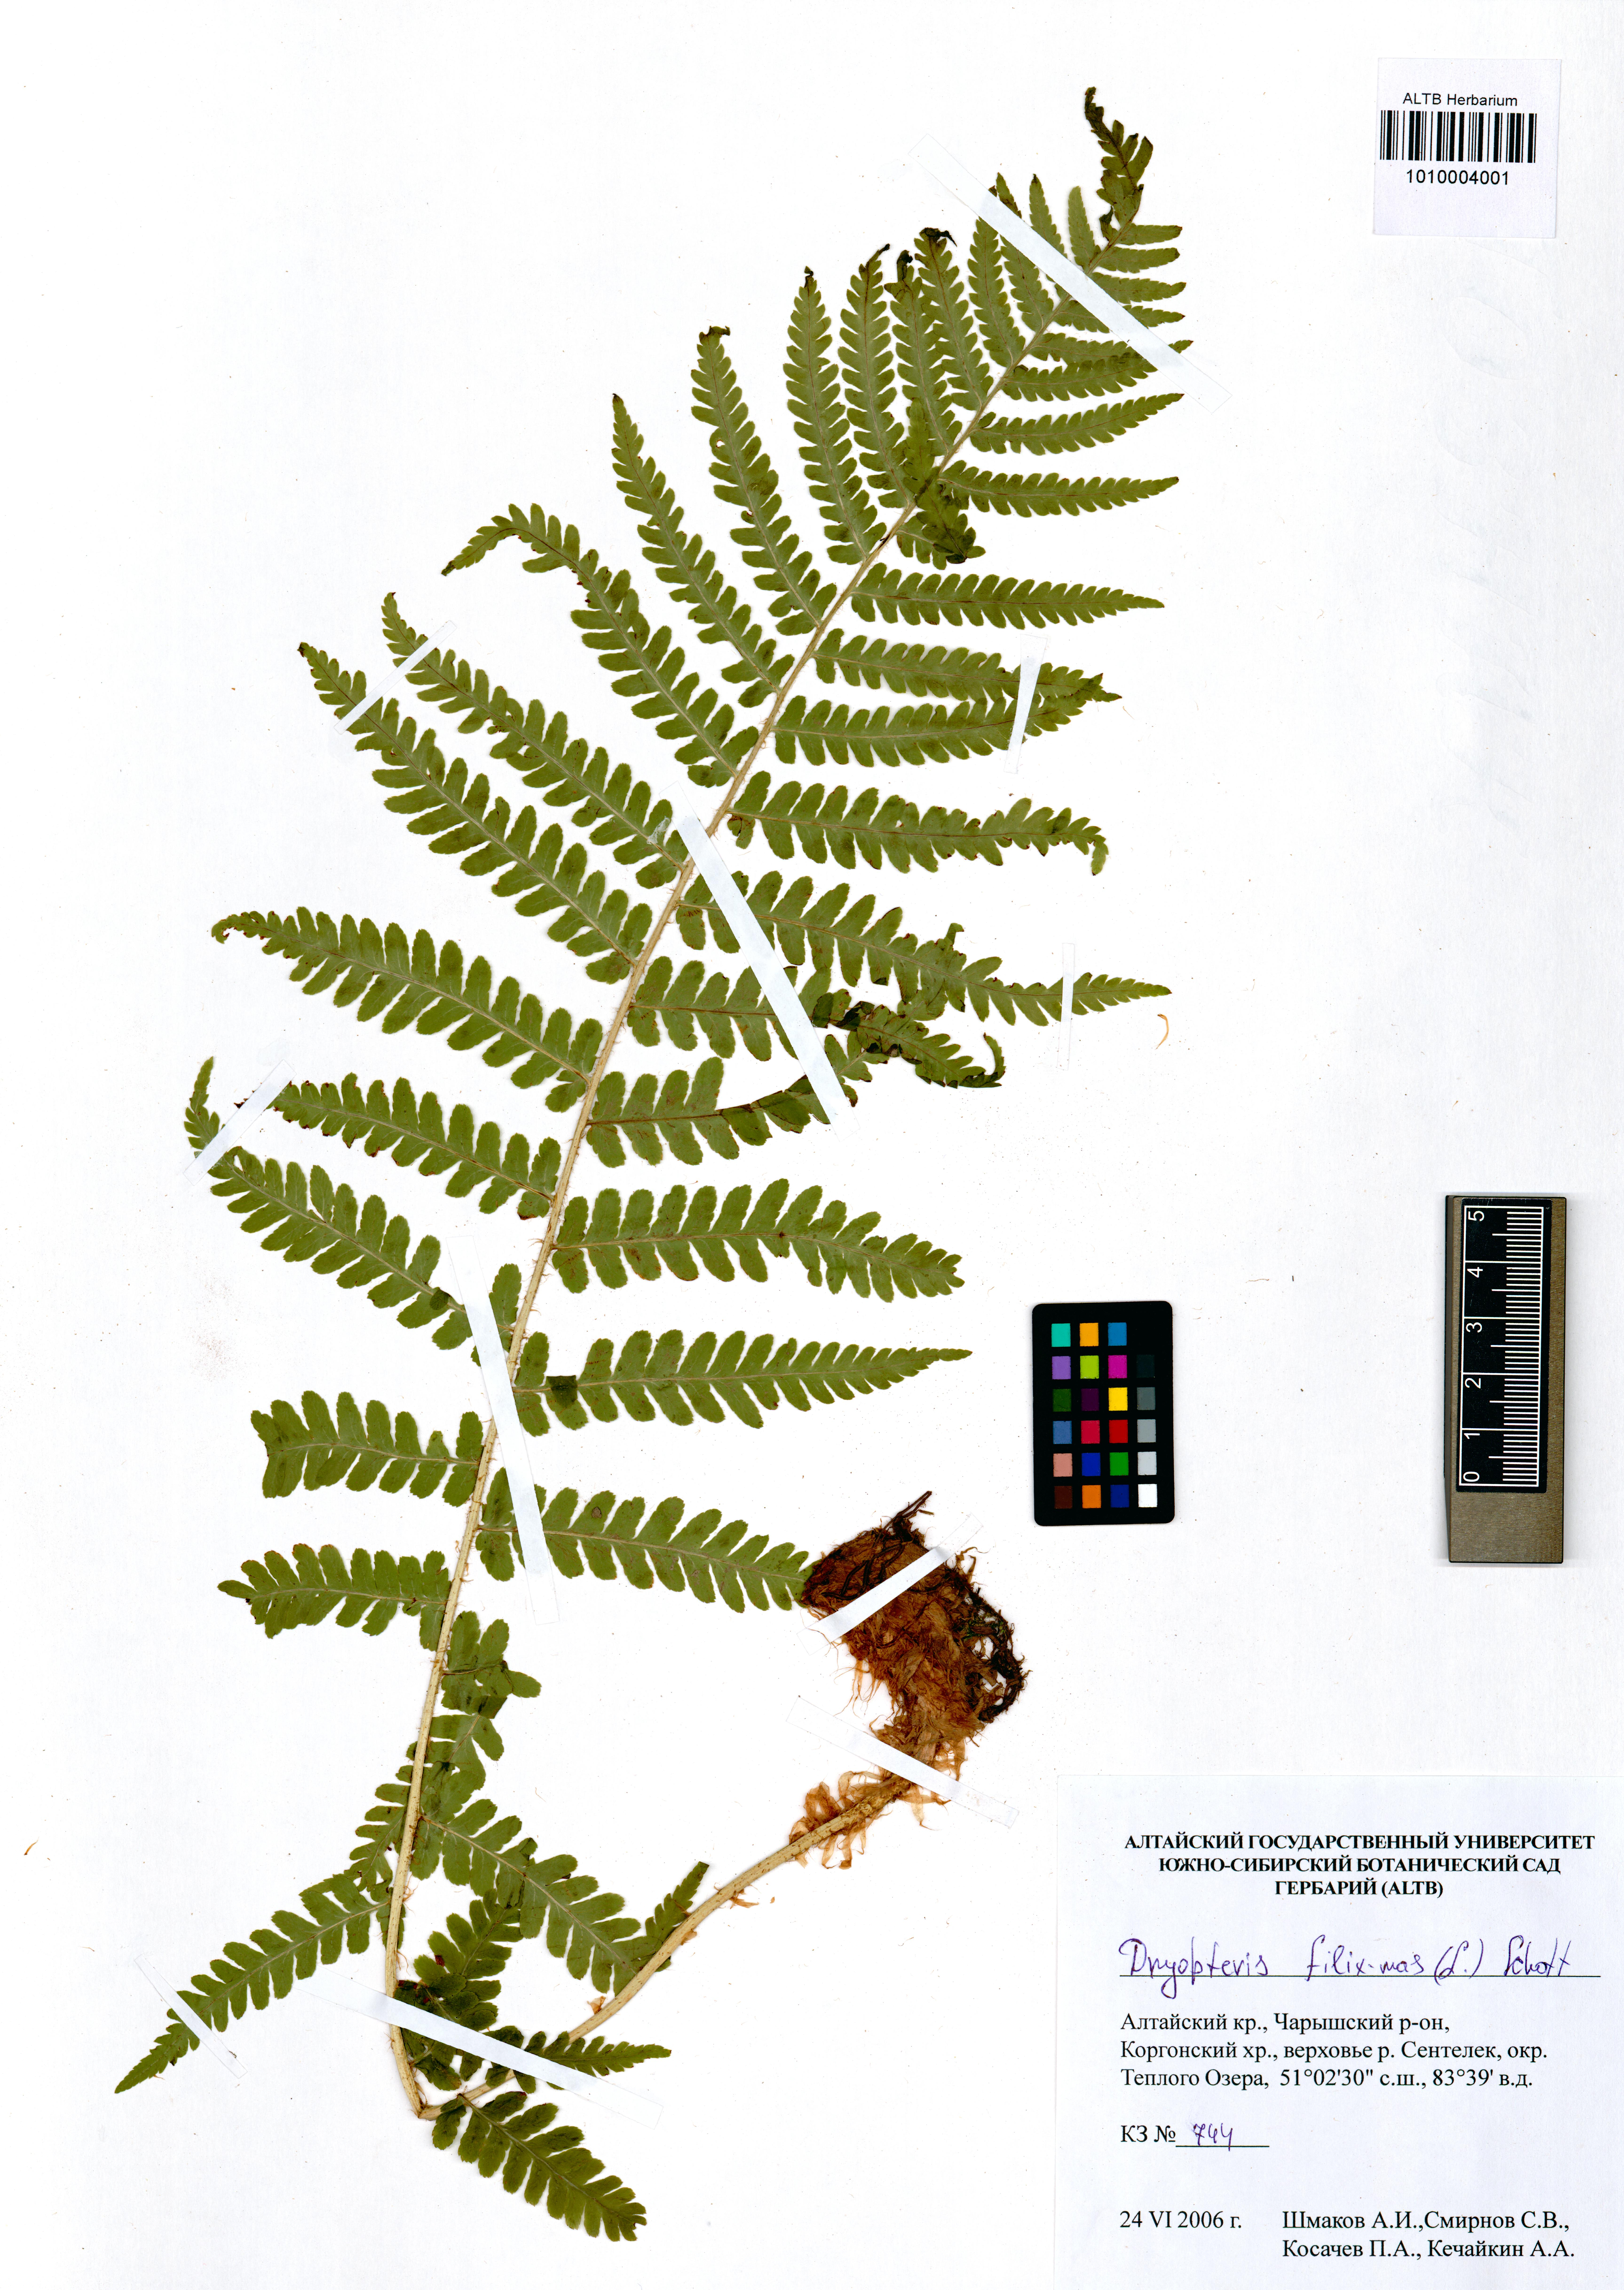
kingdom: Plantae
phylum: Tracheophyta
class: Polypodiopsida
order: Polypodiales
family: Dryopteridaceae
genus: Dryopteris
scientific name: Dryopteris filix-mas
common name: Male fern
